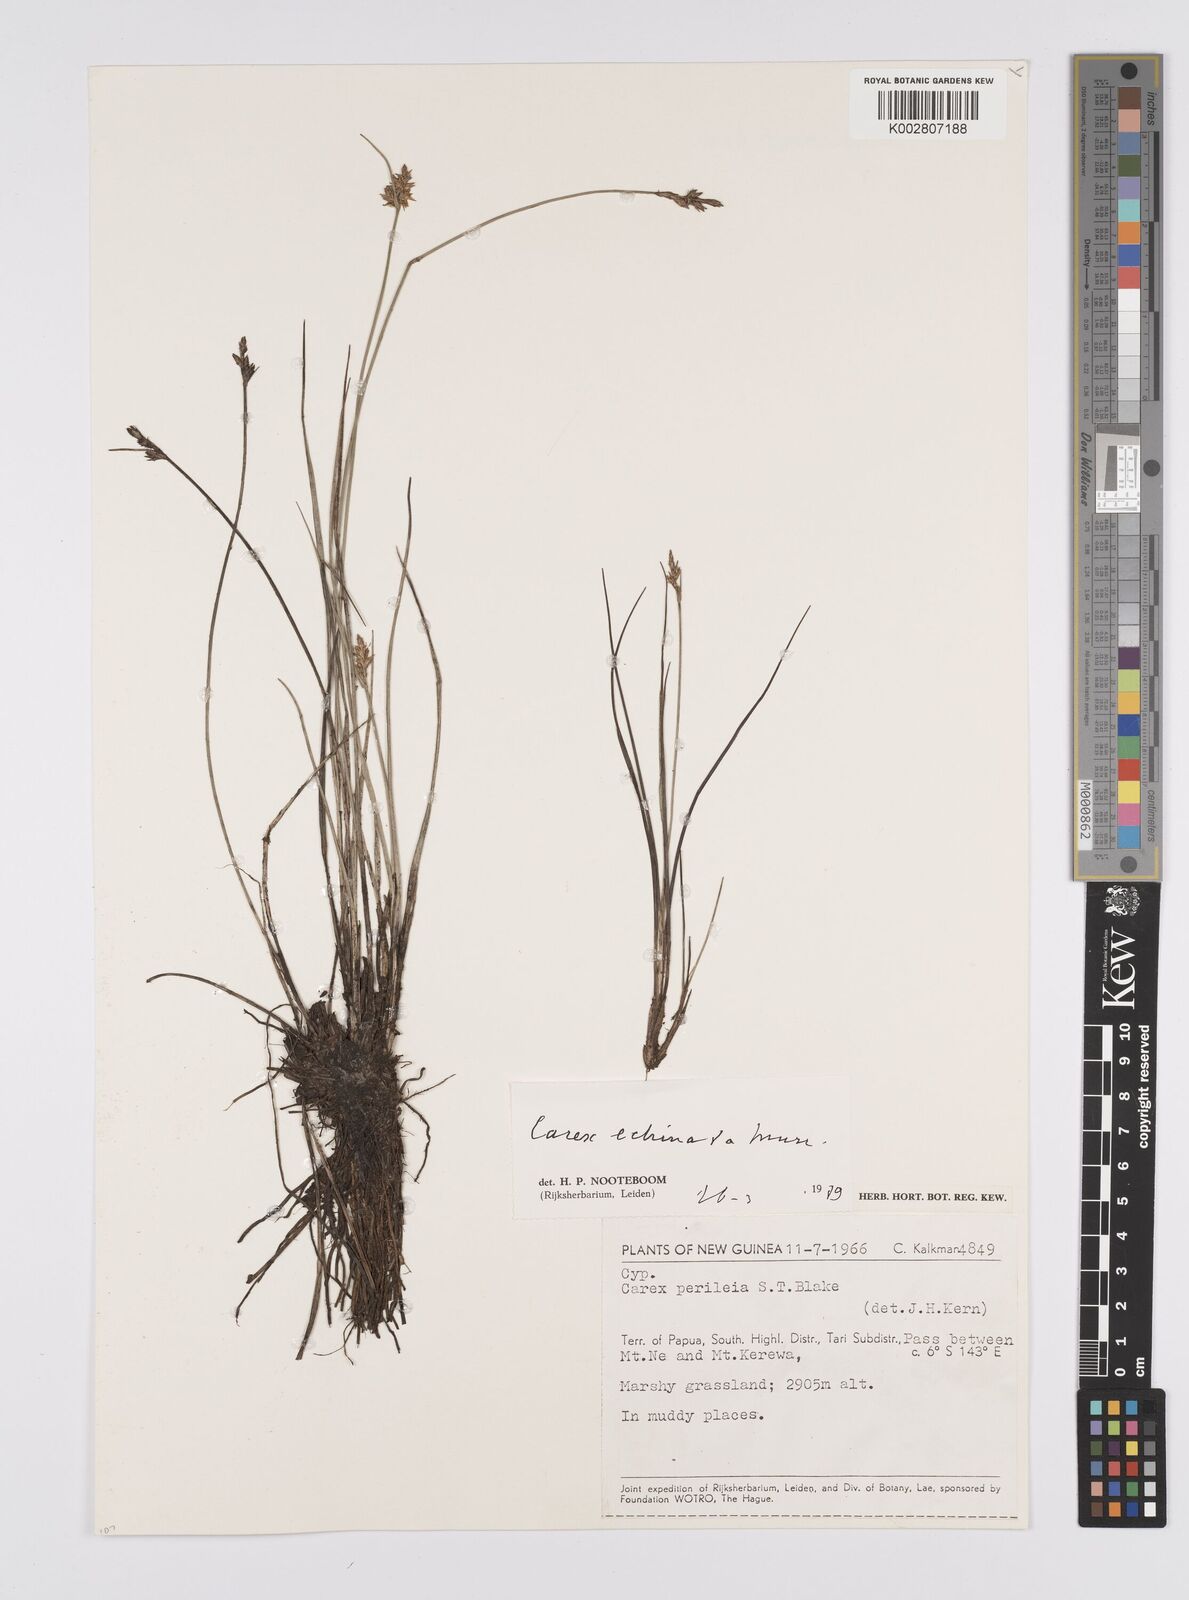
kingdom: Plantae
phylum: Tracheophyta
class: Liliopsida
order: Poales
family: Cyperaceae
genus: Carex
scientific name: Carex echinata
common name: Star sedge
